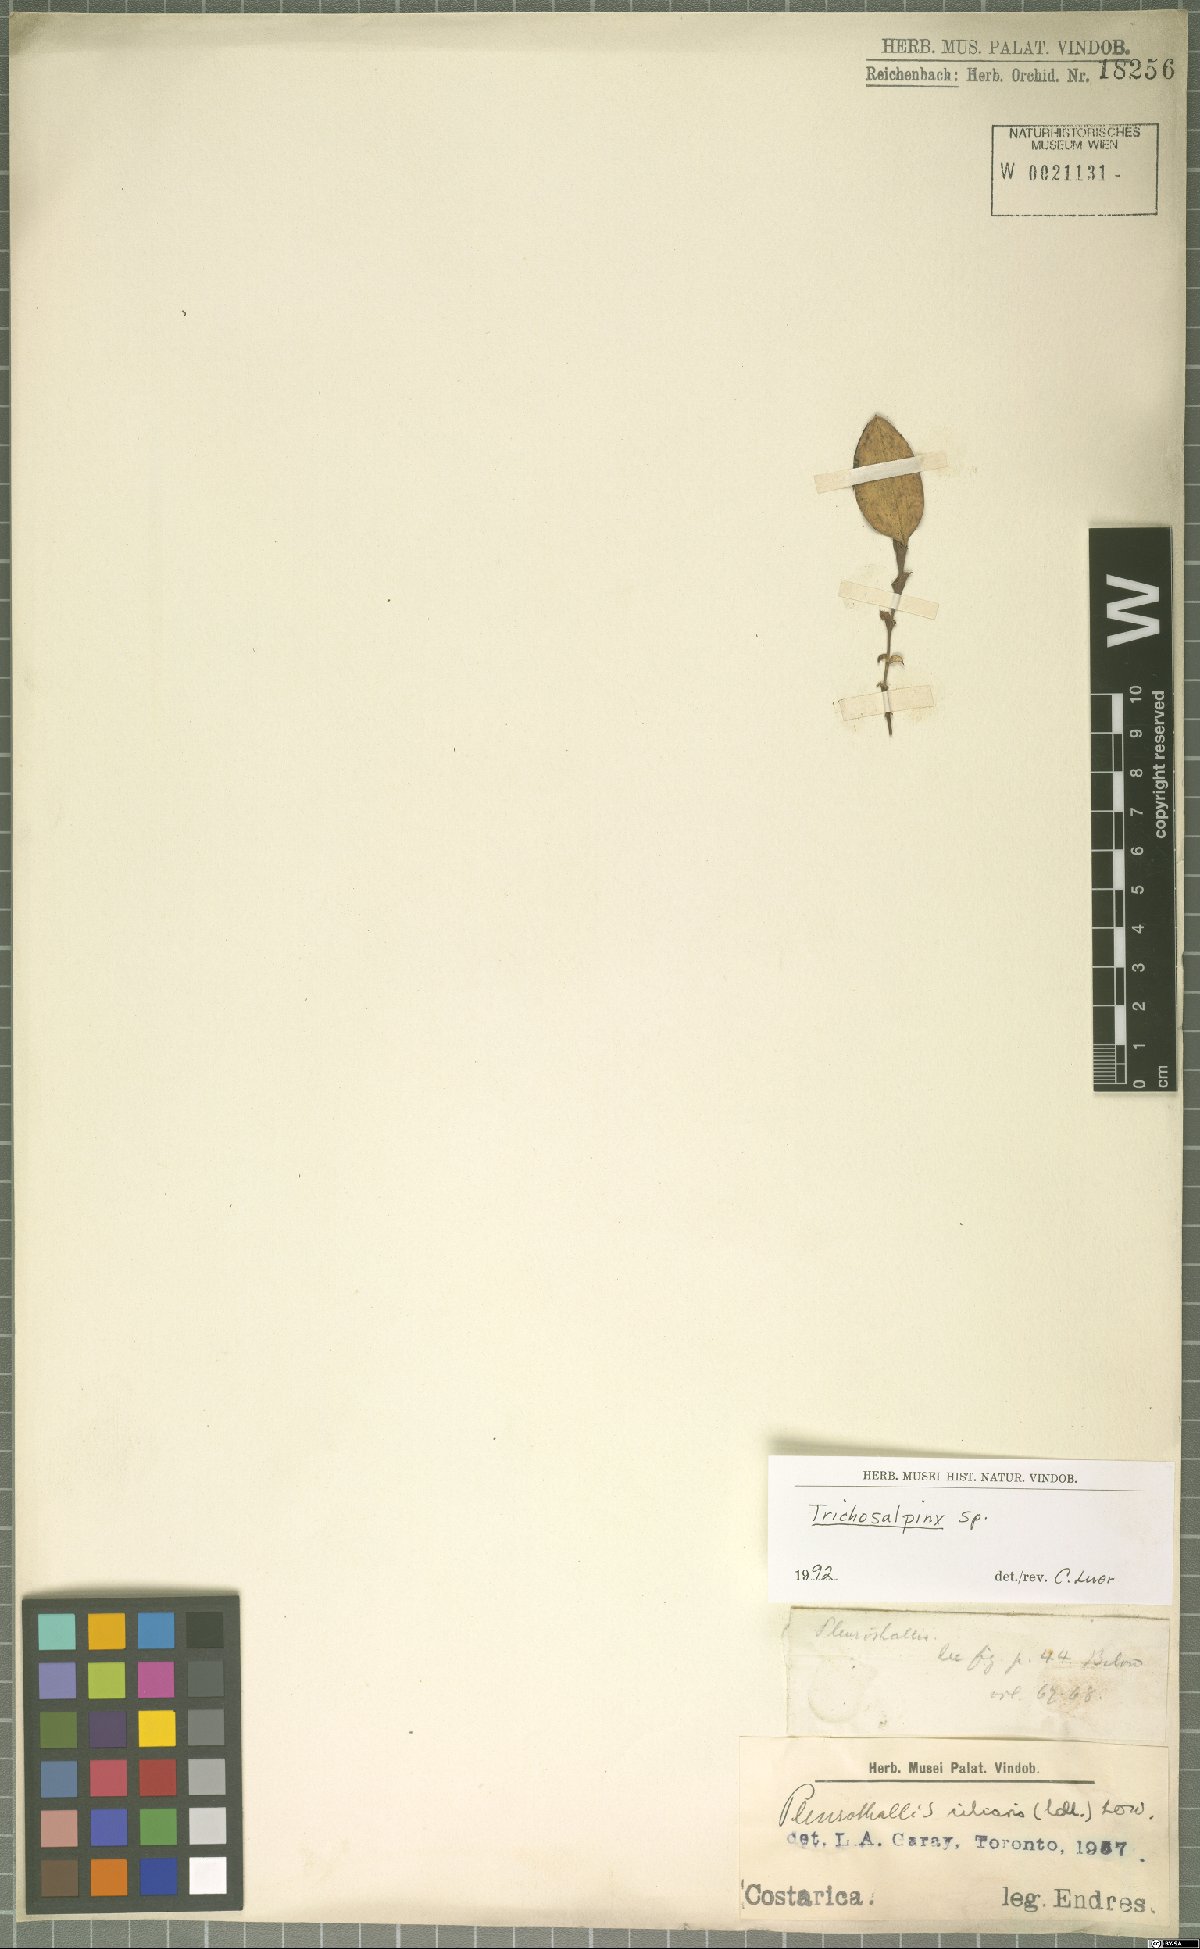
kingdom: Plantae
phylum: Tracheophyta
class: Liliopsida
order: Asparagales
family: Orchidaceae
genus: Trichosalpinx
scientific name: Trichosalpinx
